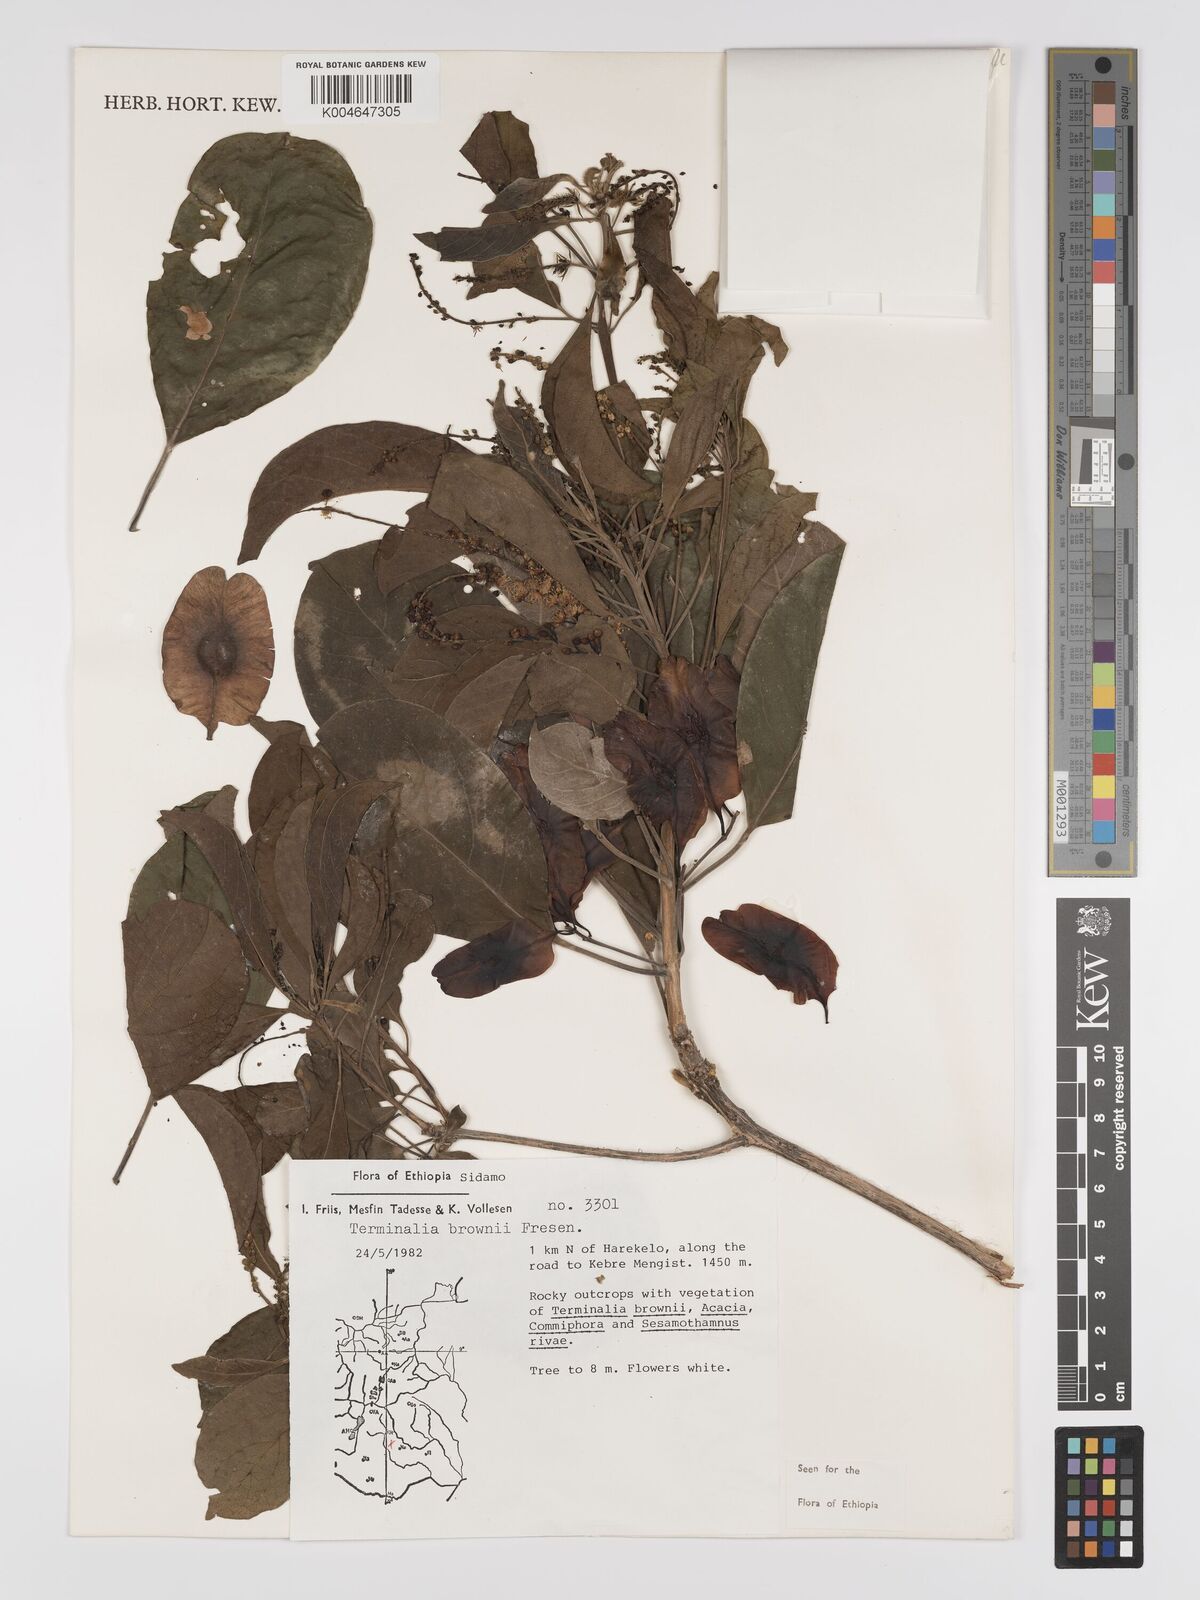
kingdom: Plantae
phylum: Tracheophyta
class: Magnoliopsida
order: Myrtales
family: Combretaceae
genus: Terminalia
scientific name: Terminalia brownii
